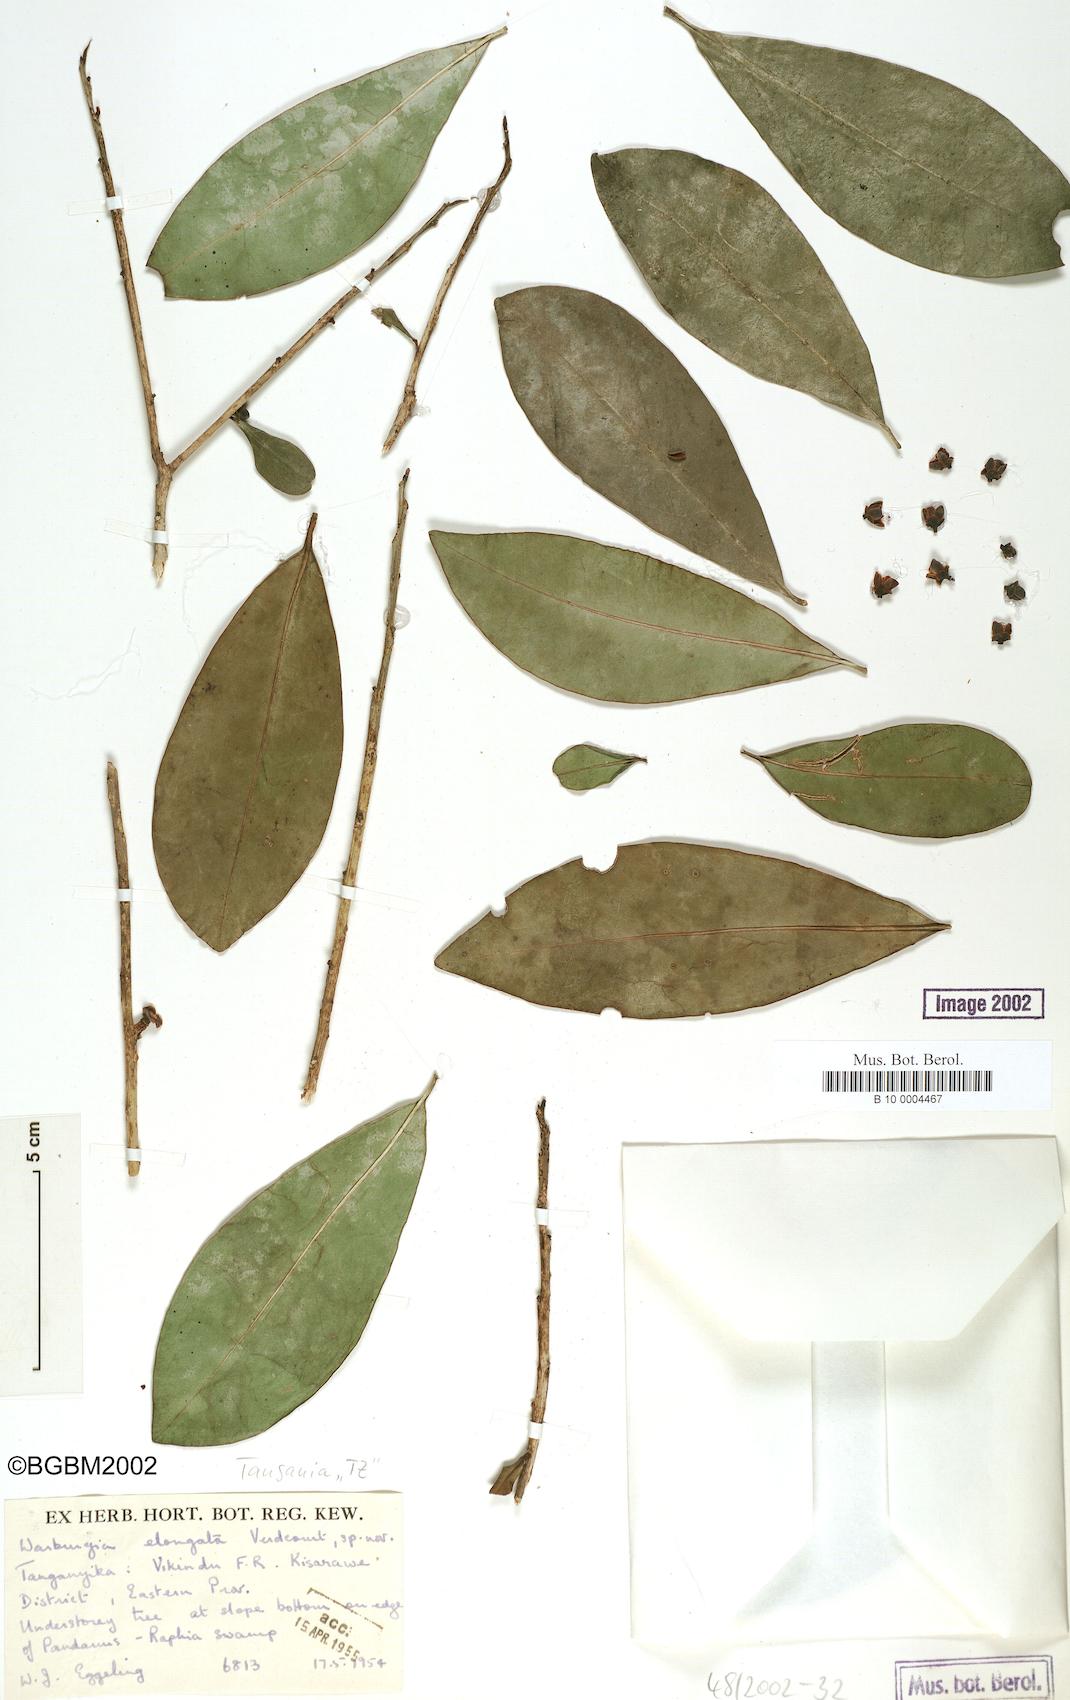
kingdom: Plantae
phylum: Tracheophyta
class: Magnoliopsida
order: Canellales
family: Canellaceae
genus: Warburgia
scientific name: Warburgia elongata
